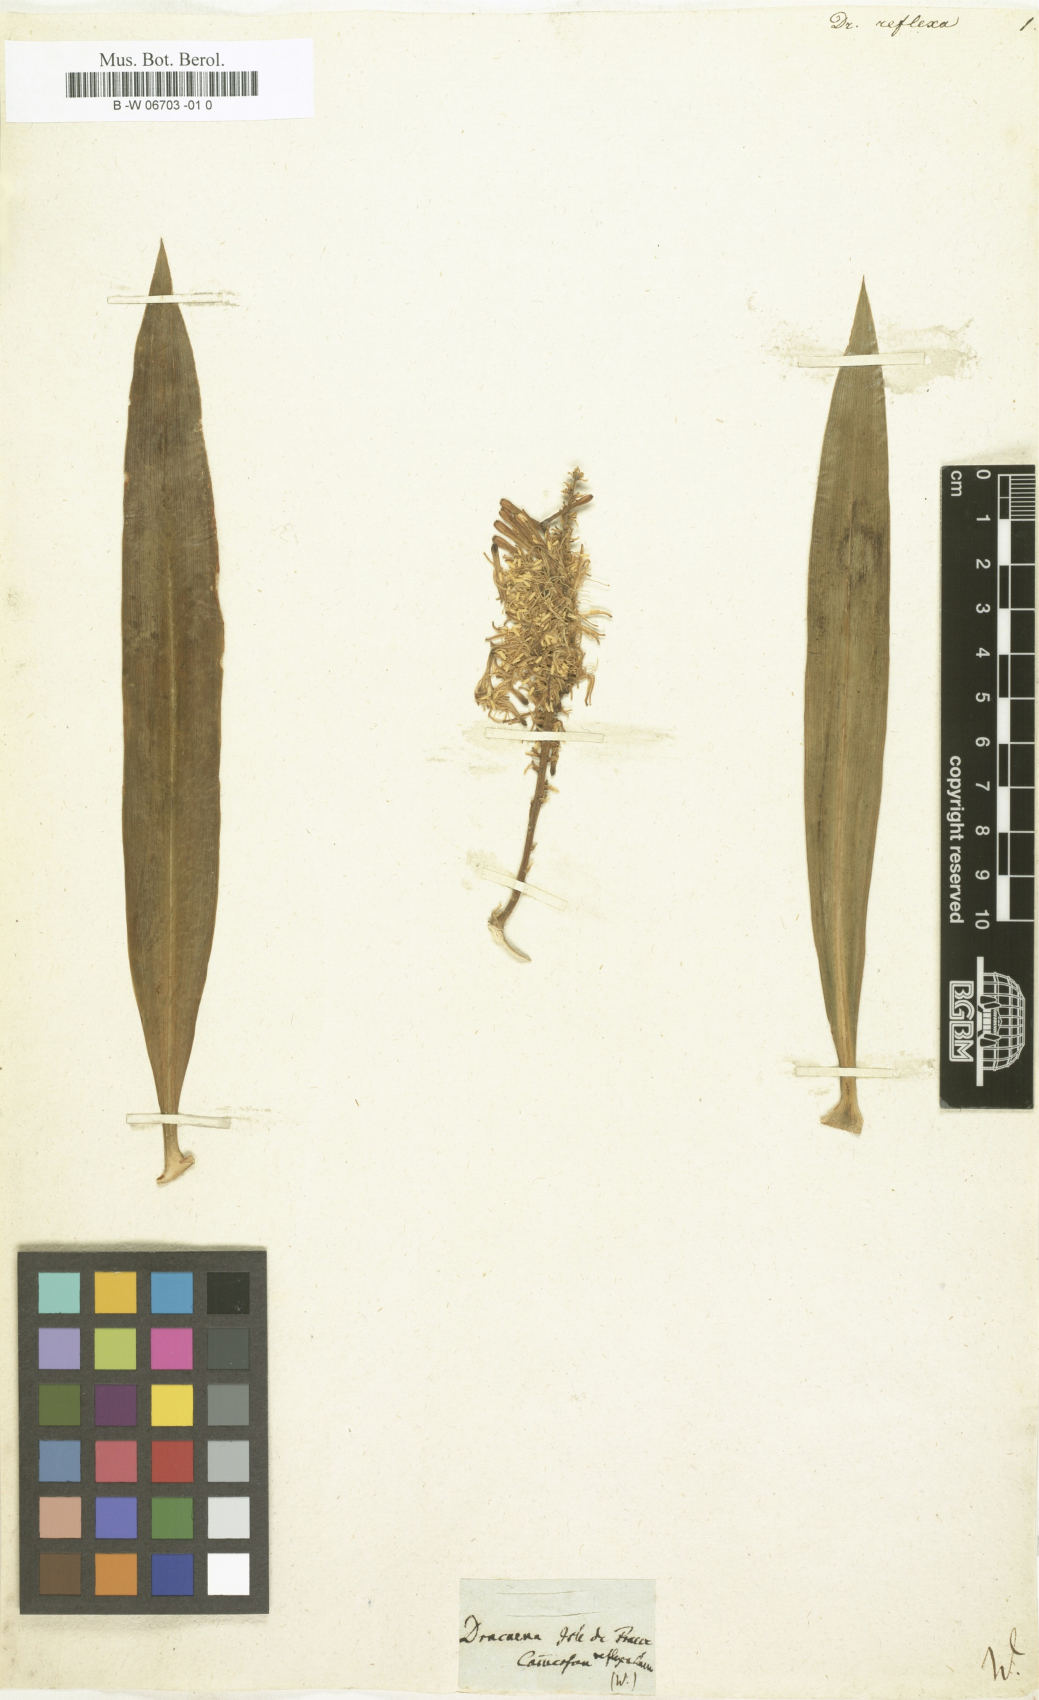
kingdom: Plantae
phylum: Tracheophyta
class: Liliopsida
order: Asparagales
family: Asparagaceae
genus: Dracaena
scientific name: Dracaena reflexa
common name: Song-of-india
